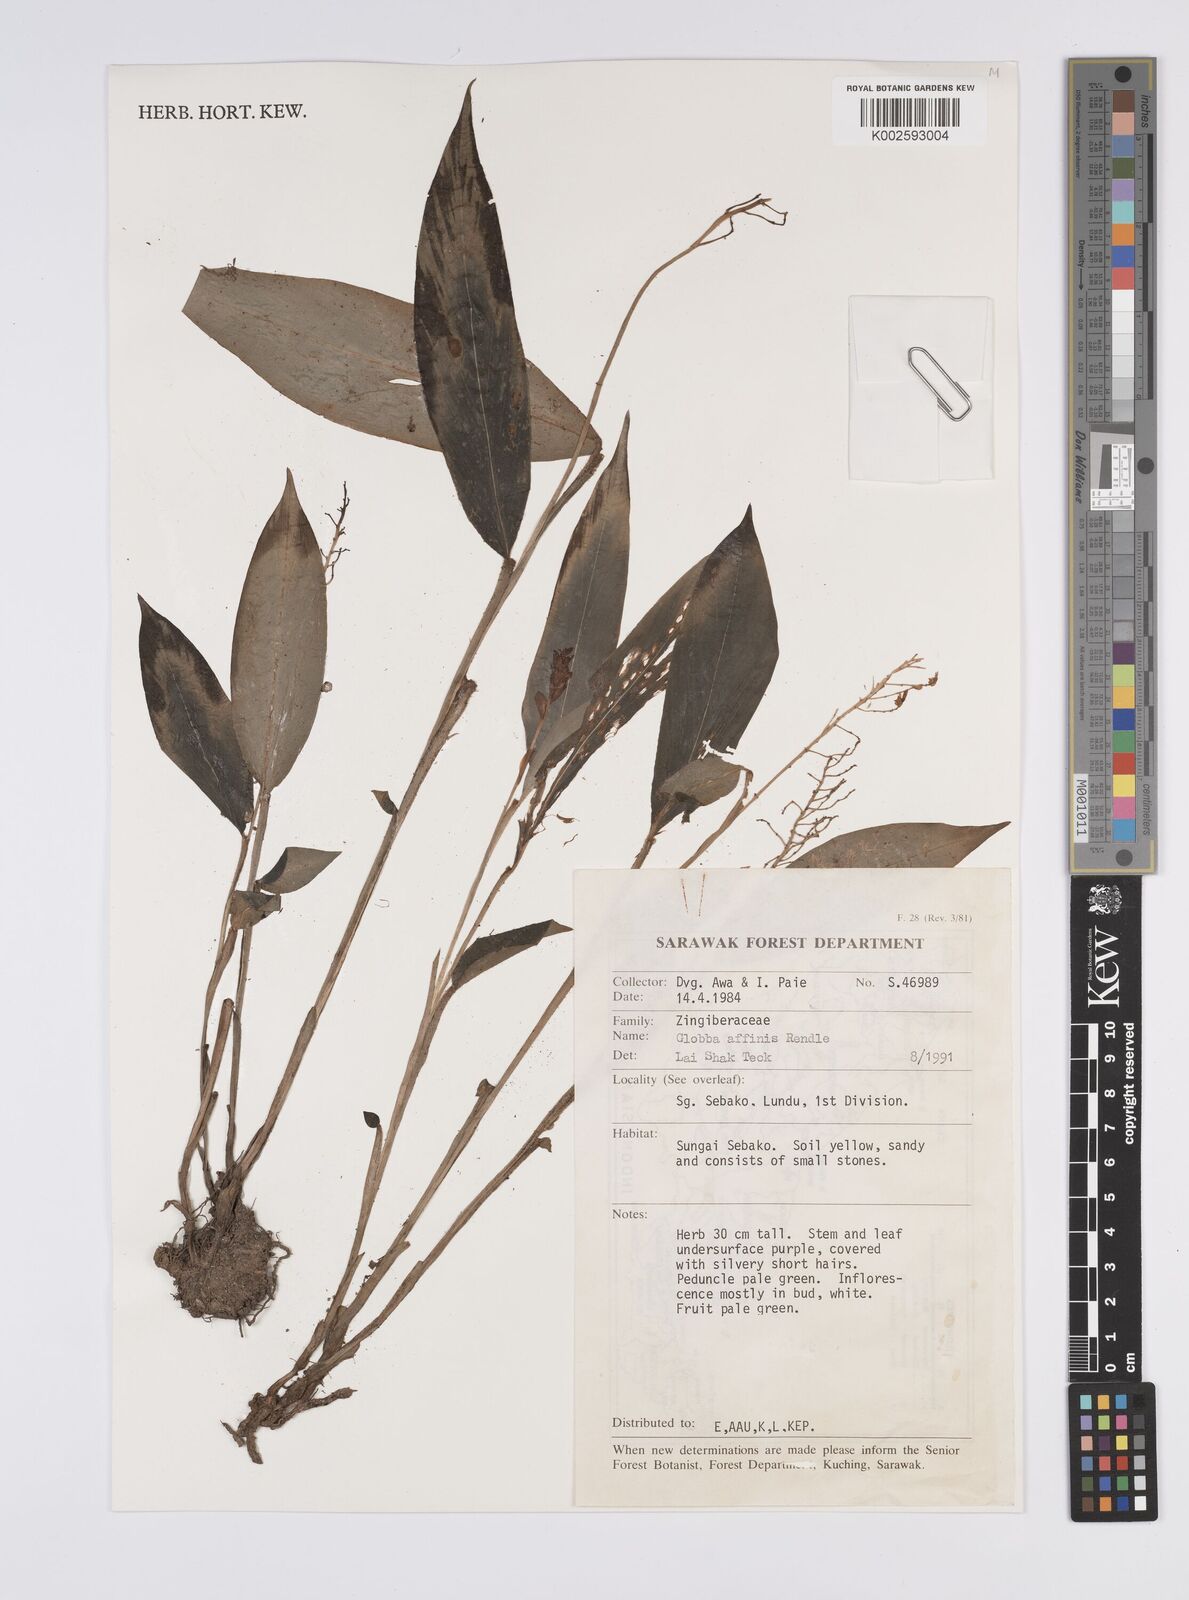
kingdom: Plantae
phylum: Tracheophyta
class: Liliopsida
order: Zingiberales
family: Zingiberaceae
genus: Globba
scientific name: Globba brachyanthera
